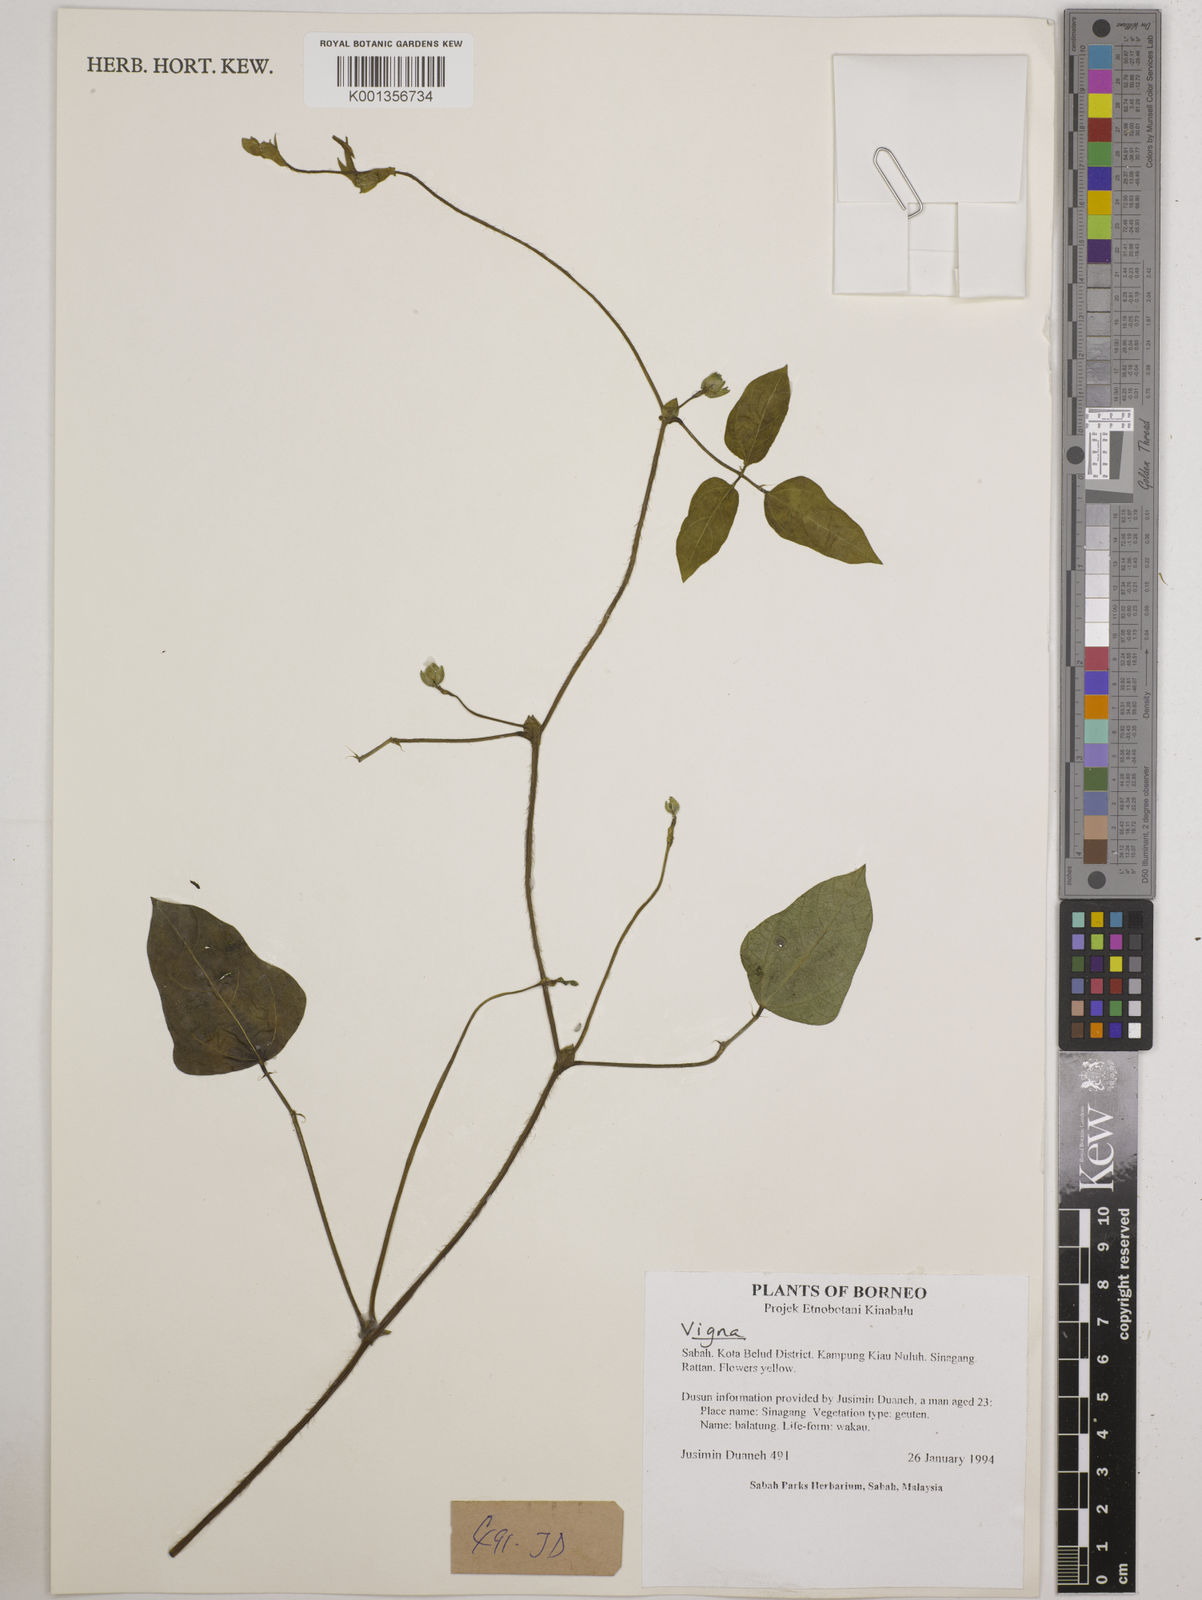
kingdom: Plantae
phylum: Tracheophyta
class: Magnoliopsida
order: Fabales
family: Fabaceae
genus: Vigna
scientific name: Vigna
